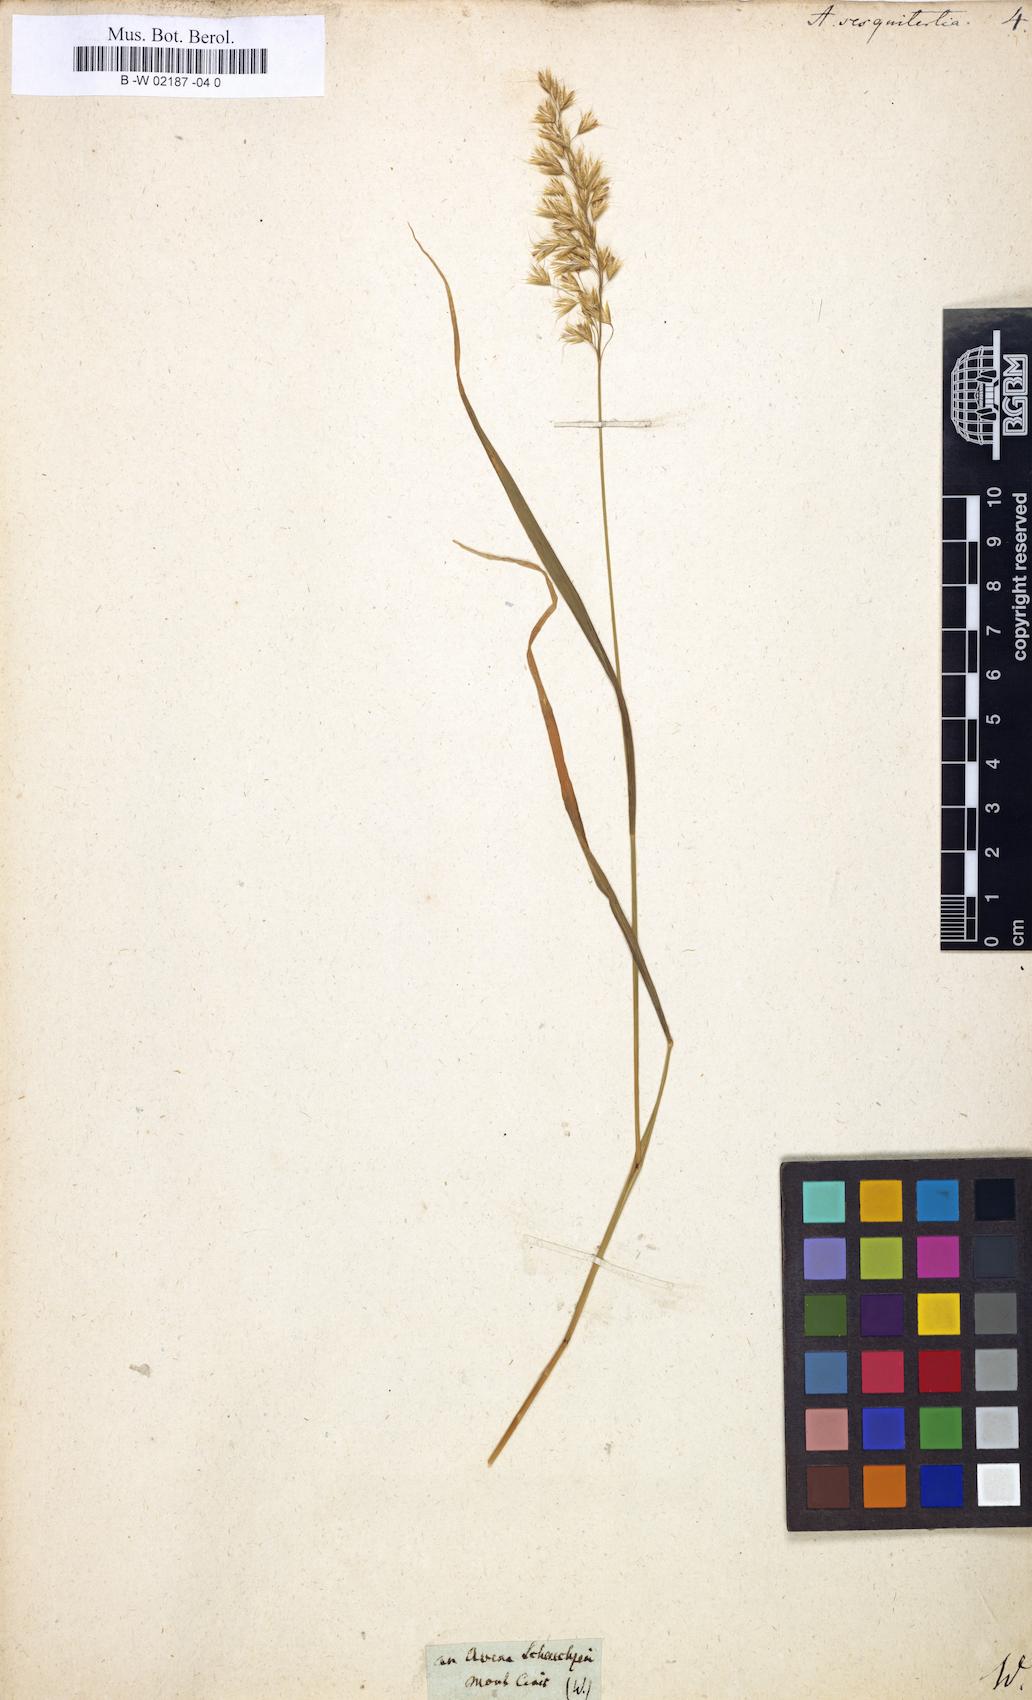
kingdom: Plantae
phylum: Tracheophyta
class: Liliopsida
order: Poales
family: Poaceae
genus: Avenula
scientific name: Avenula pubescens
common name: Downy alpine oatgrass
